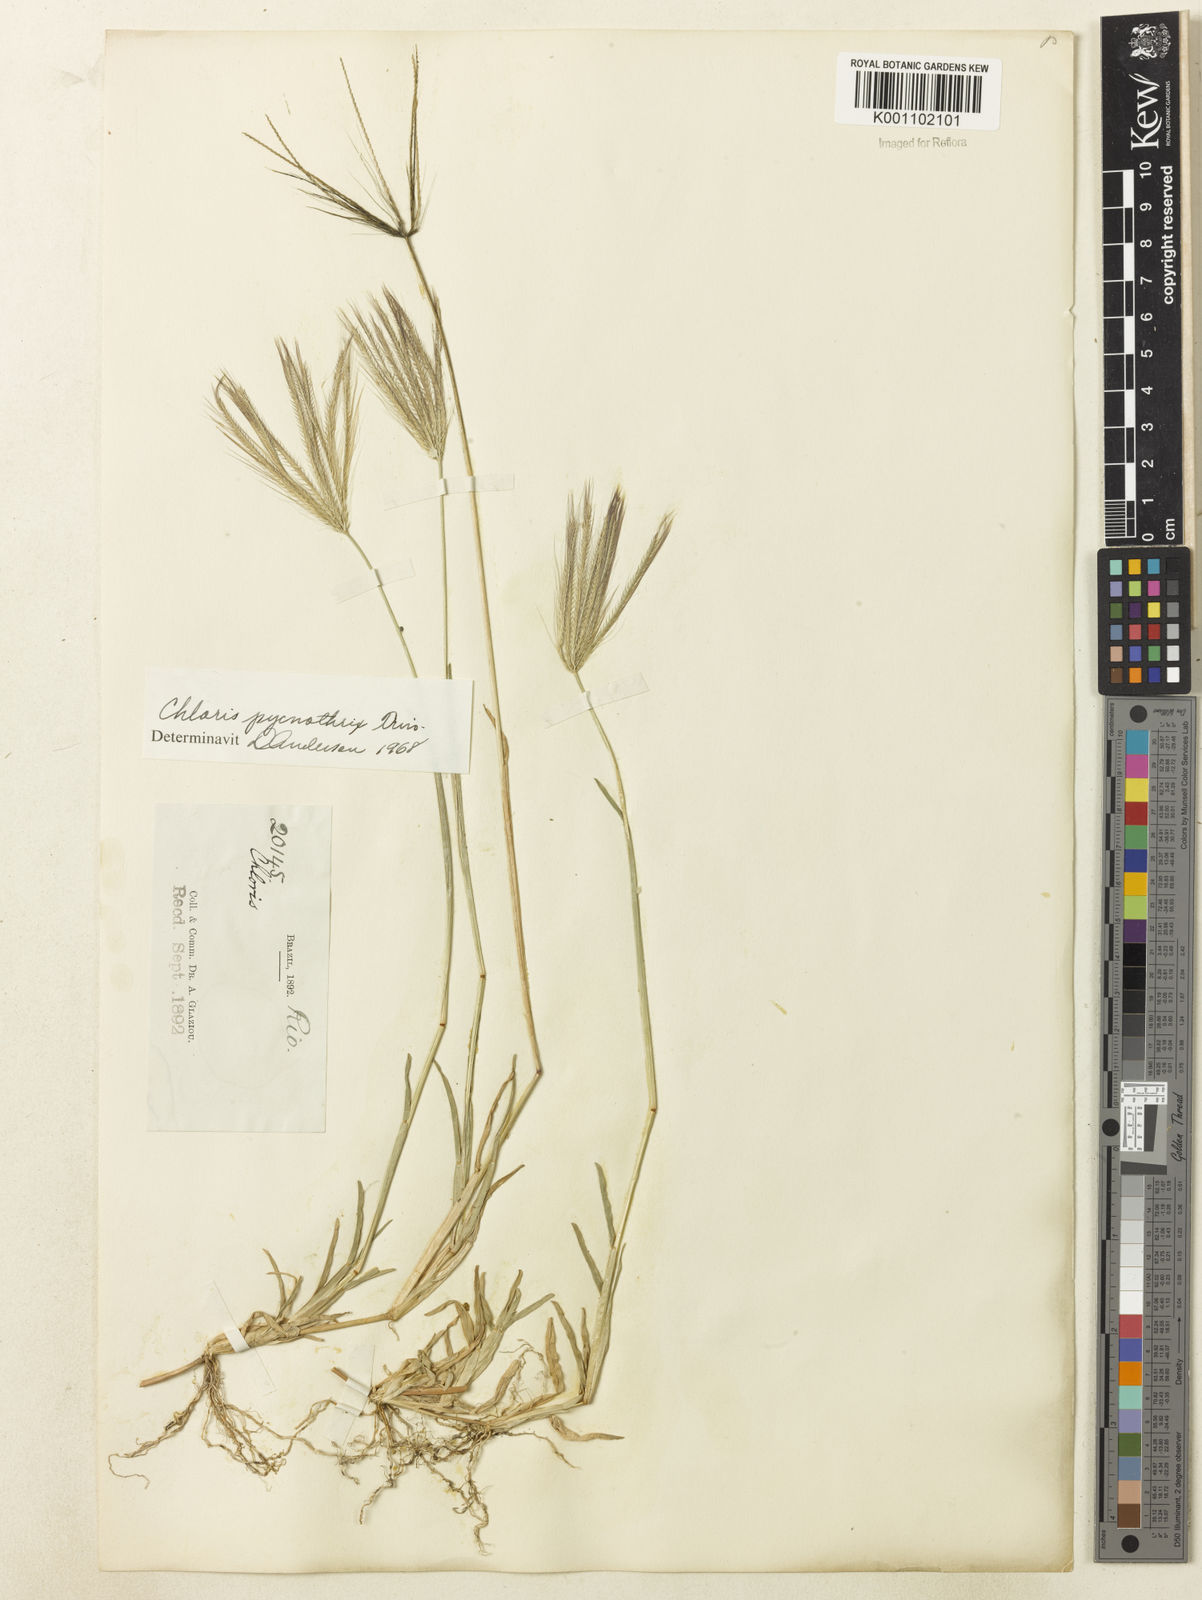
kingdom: Plantae
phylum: Tracheophyta
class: Liliopsida
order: Poales
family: Poaceae
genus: Chloris
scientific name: Chloris pycnothrix
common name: Spiderweb chloris
